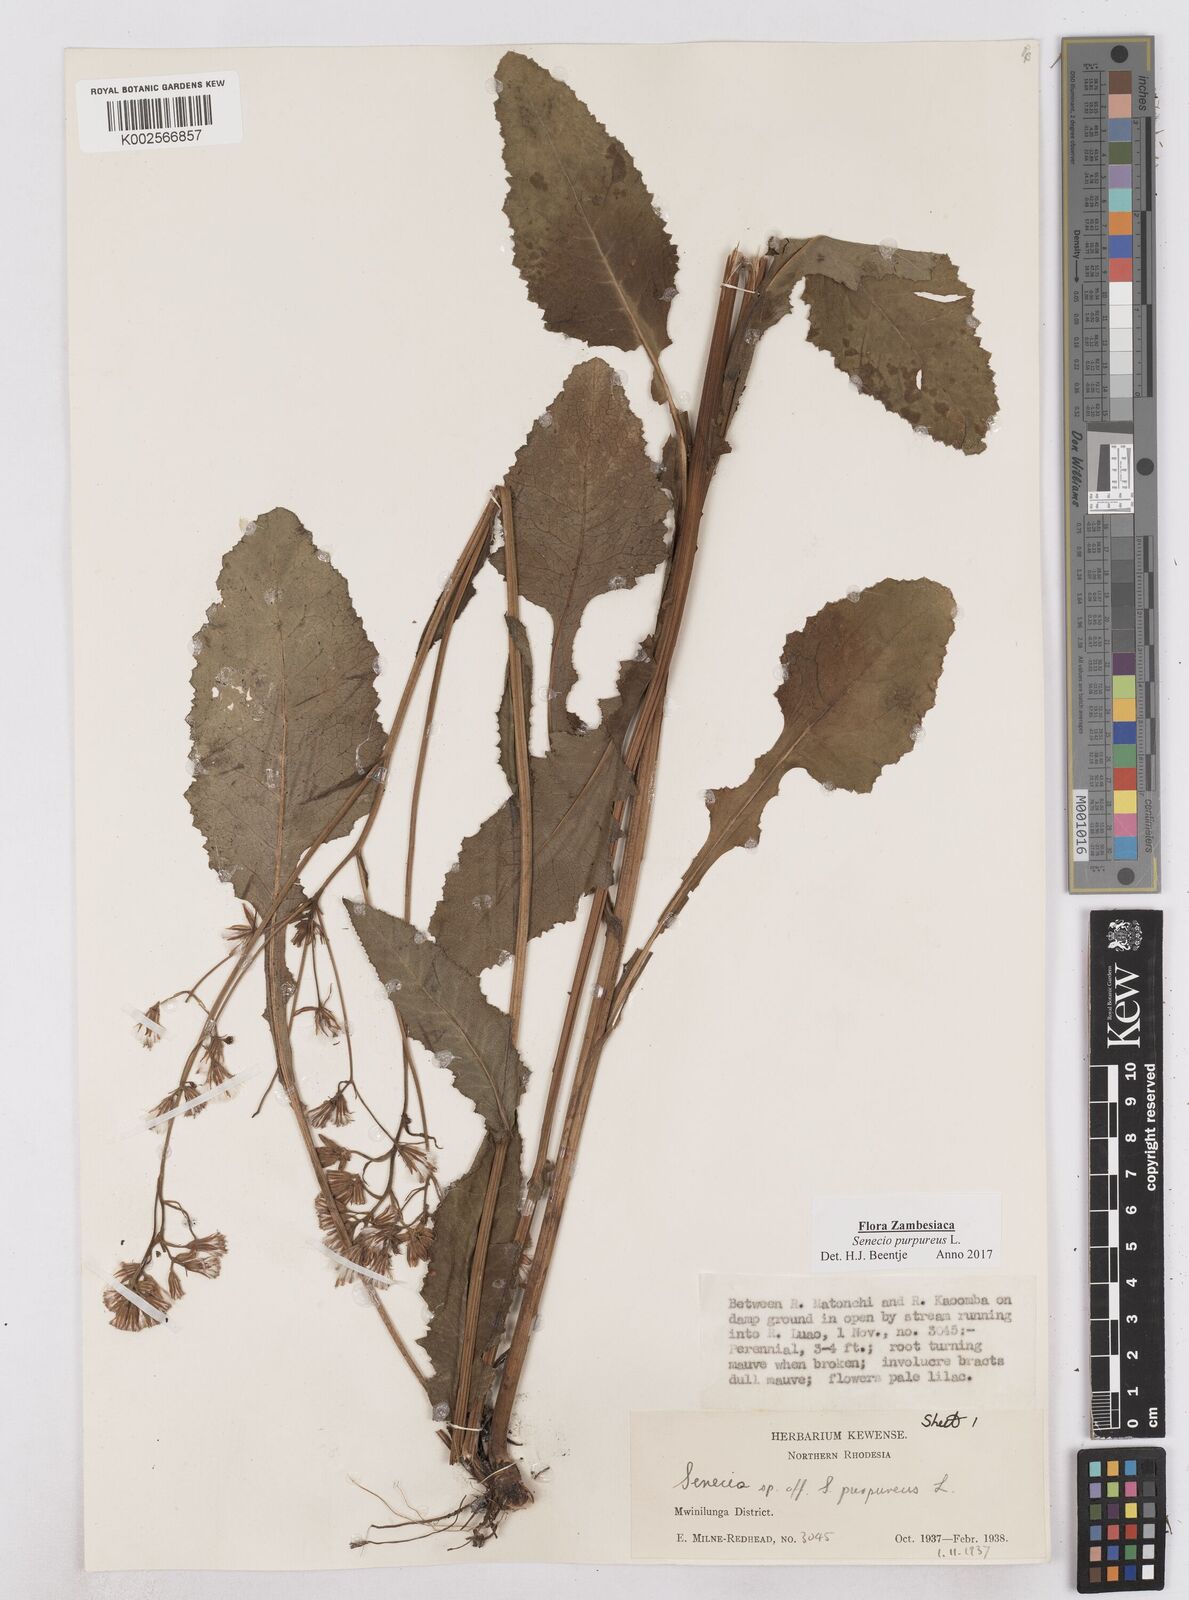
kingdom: Plantae
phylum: Tracheophyta
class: Magnoliopsida
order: Asterales
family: Asteraceae
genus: Senecio
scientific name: Senecio purpureus
